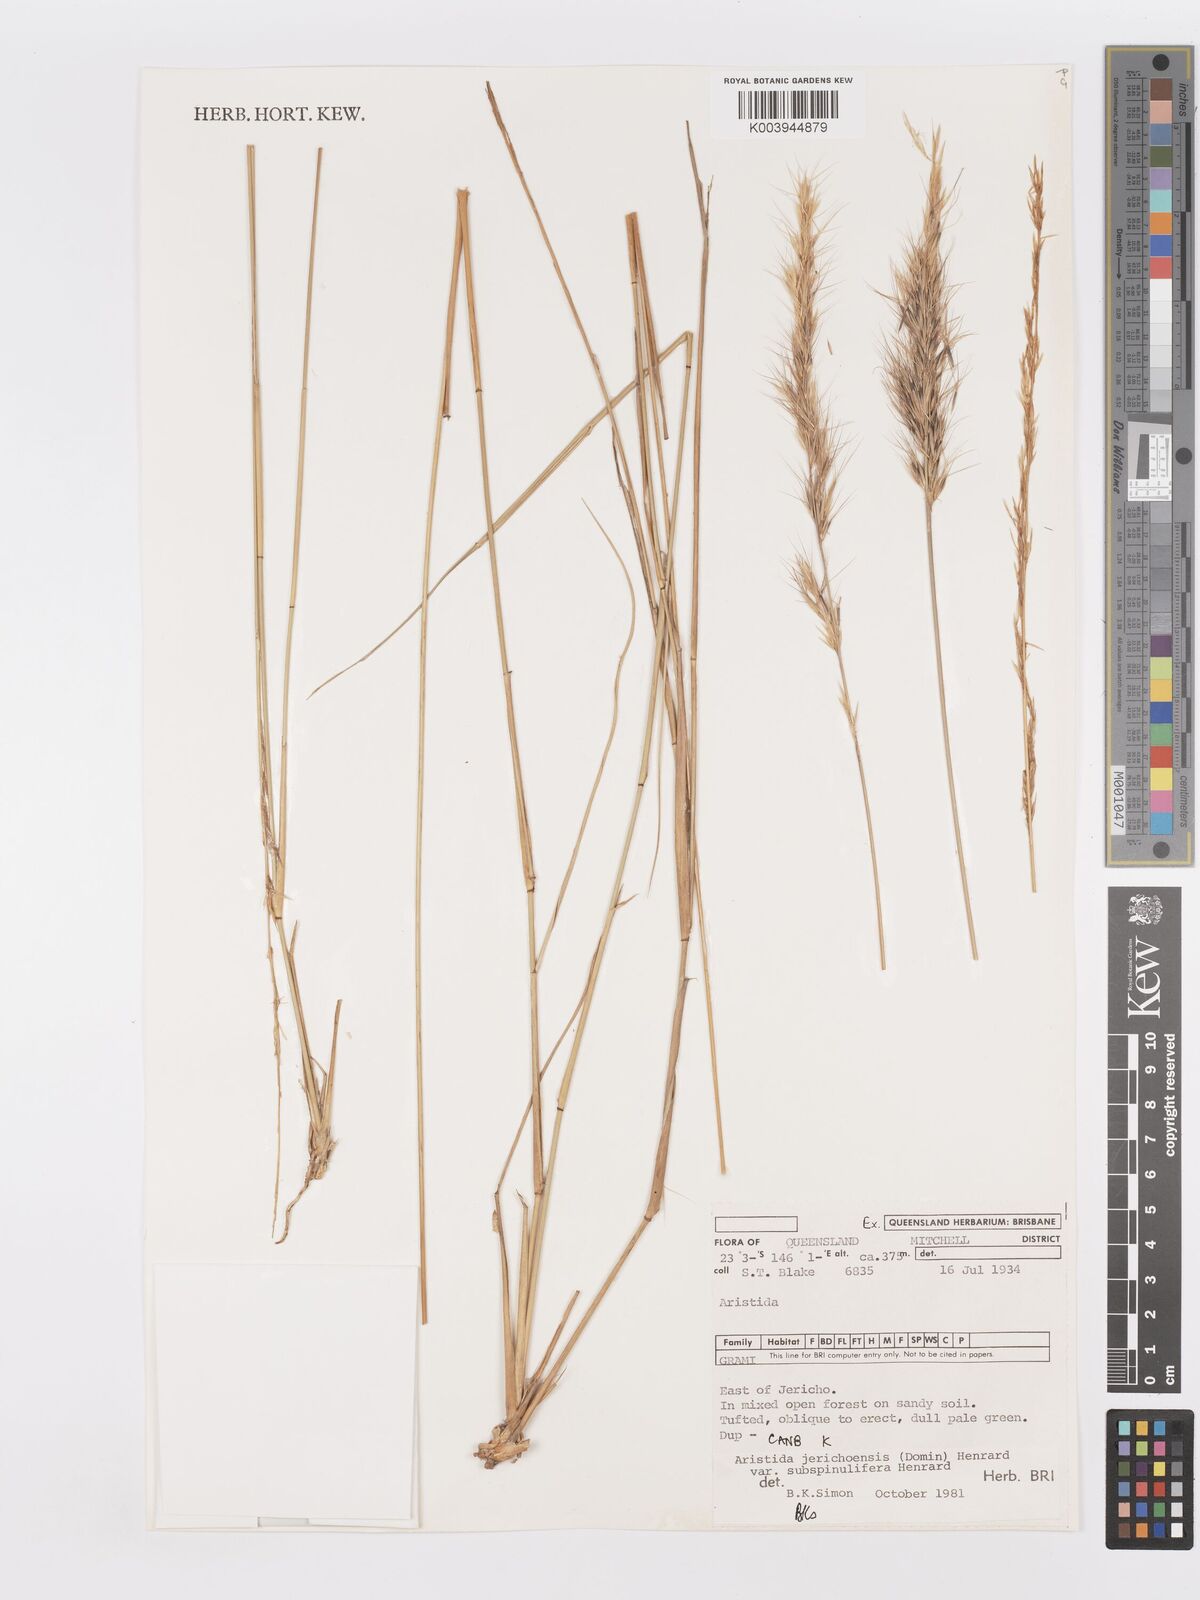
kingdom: Plantae
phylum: Tracheophyta
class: Liliopsida
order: Poales
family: Poaceae
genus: Aristida
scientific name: Aristida jerichoensis
